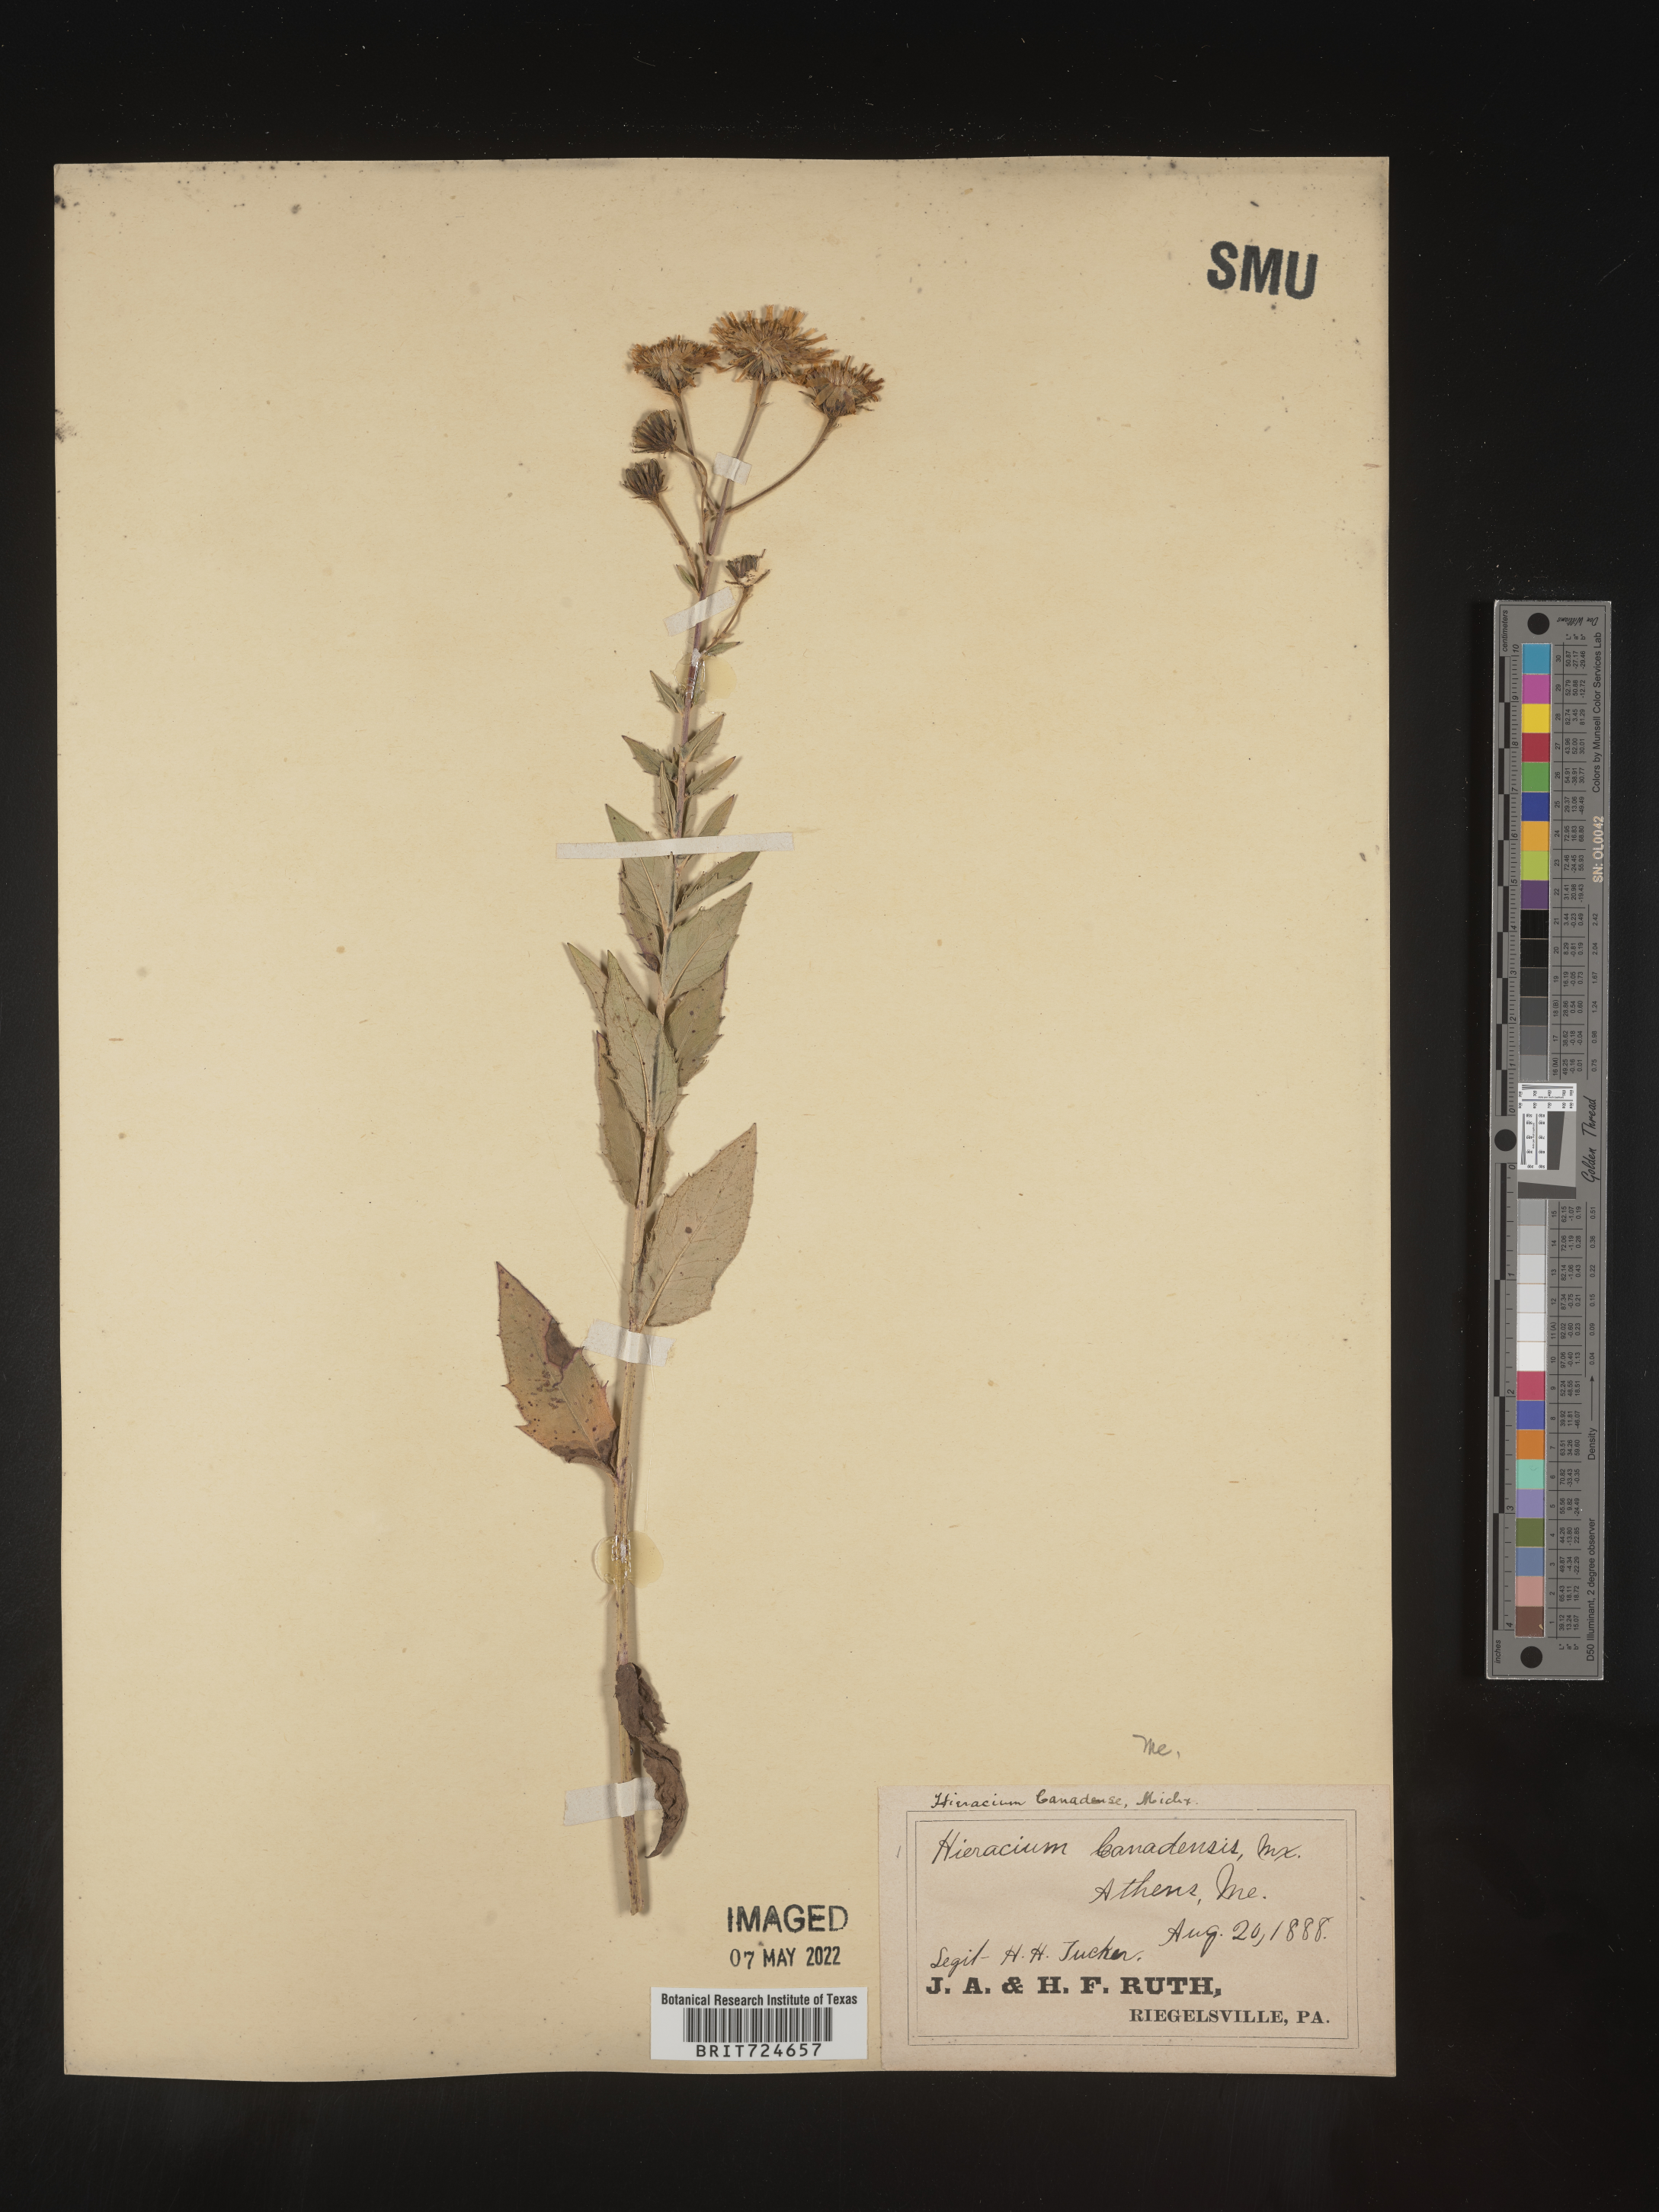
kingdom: Plantae
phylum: Tracheophyta
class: Magnoliopsida
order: Asterales
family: Asteraceae
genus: Hieracium
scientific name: Hieracium
